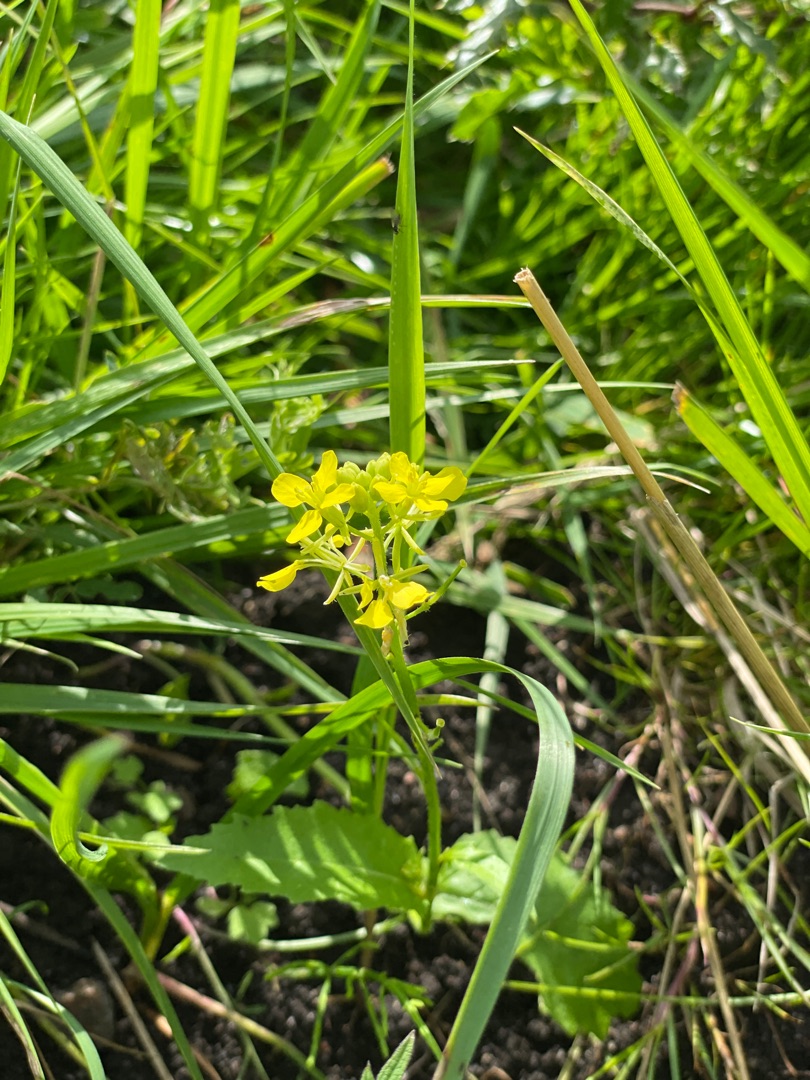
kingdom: Plantae
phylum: Tracheophyta
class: Magnoliopsida
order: Brassicales
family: Brassicaceae
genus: Sinapis
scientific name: Sinapis arvensis
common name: Ager-sennep
